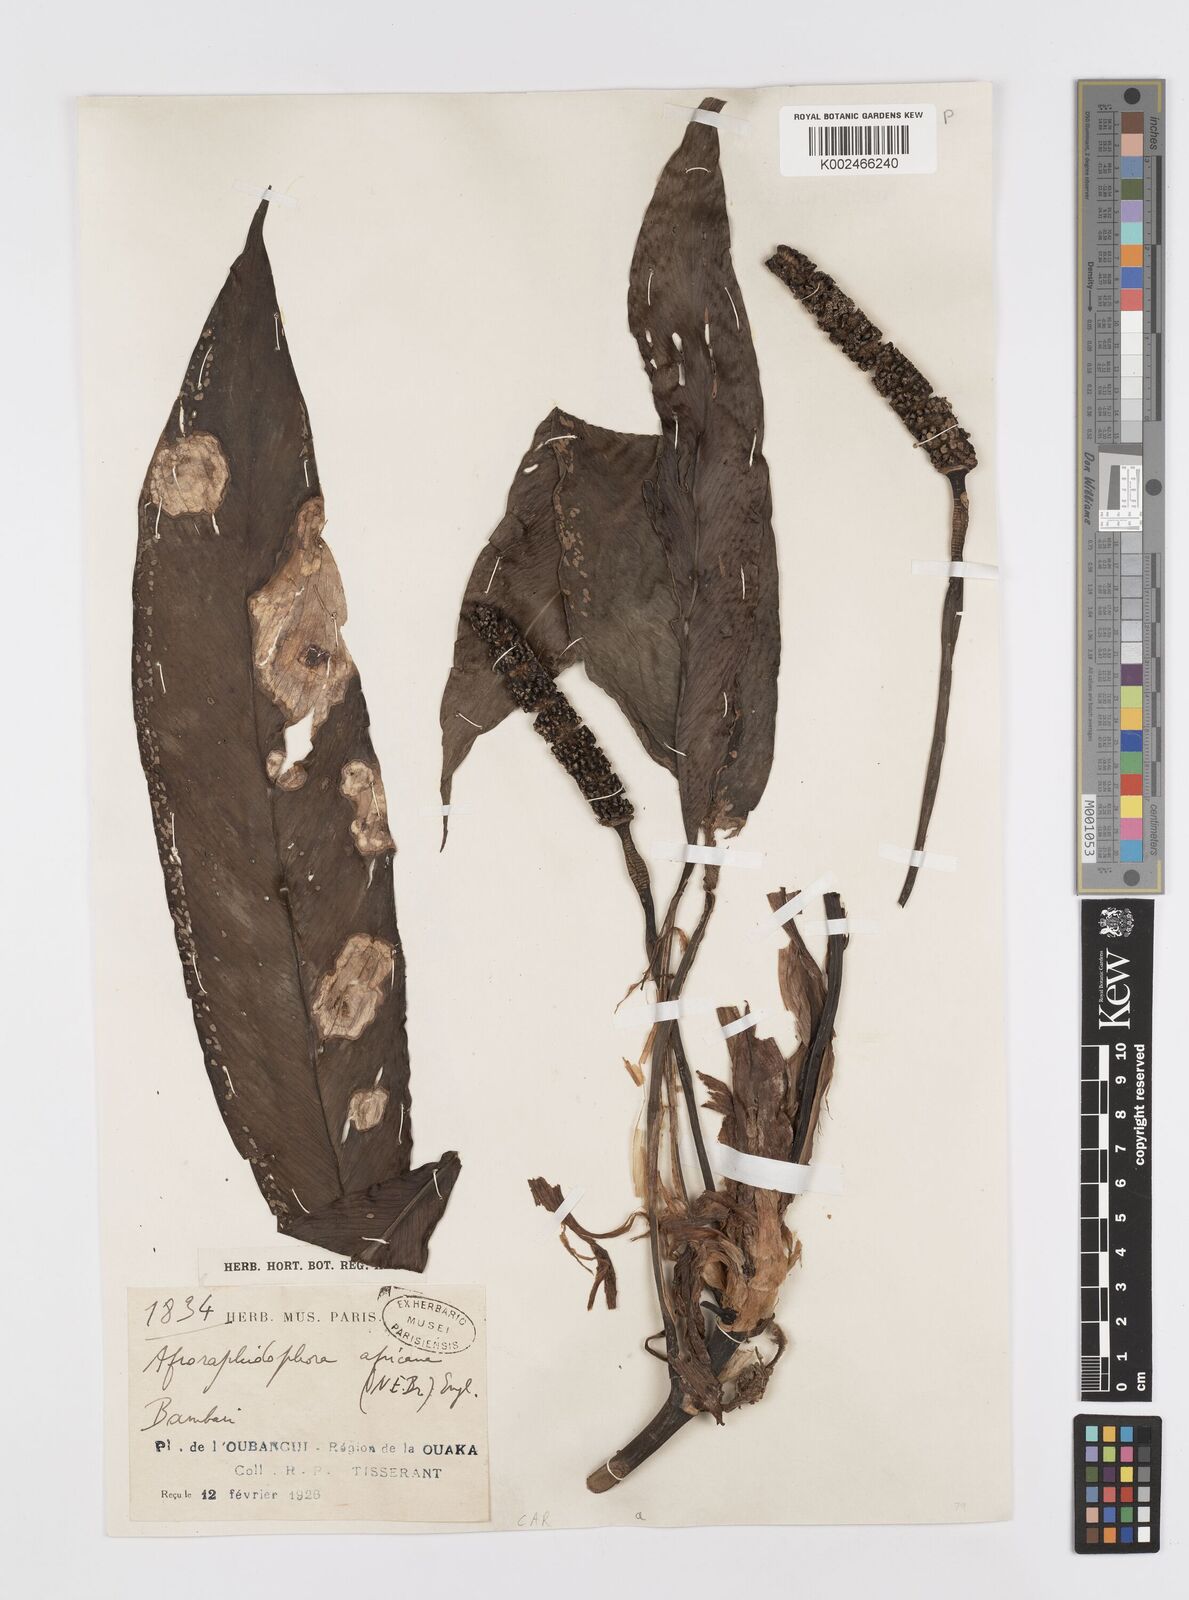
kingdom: Plantae
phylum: Tracheophyta
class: Liliopsida
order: Alismatales
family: Araceae
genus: Rhaphidophora
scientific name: Rhaphidophora
